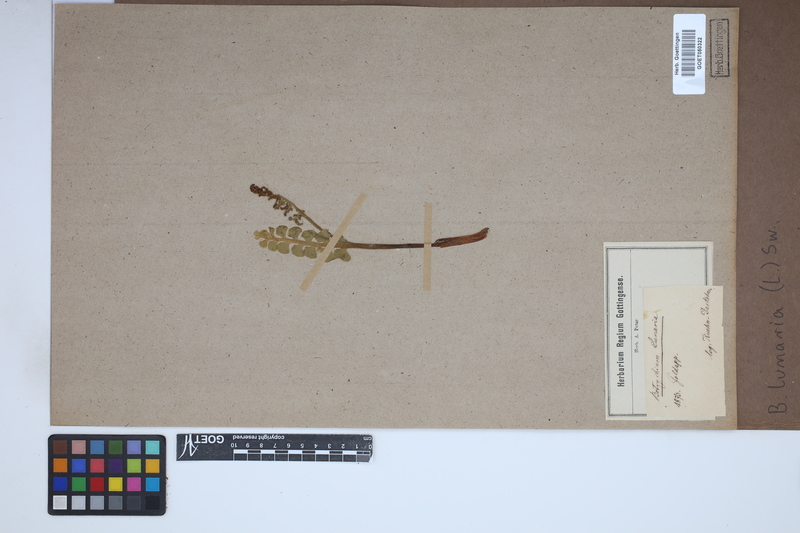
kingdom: Plantae
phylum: Tracheophyta
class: Polypodiopsida
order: Ophioglossales
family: Ophioglossaceae
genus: Botrychium
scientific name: Botrychium lunaria
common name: Moonwort
